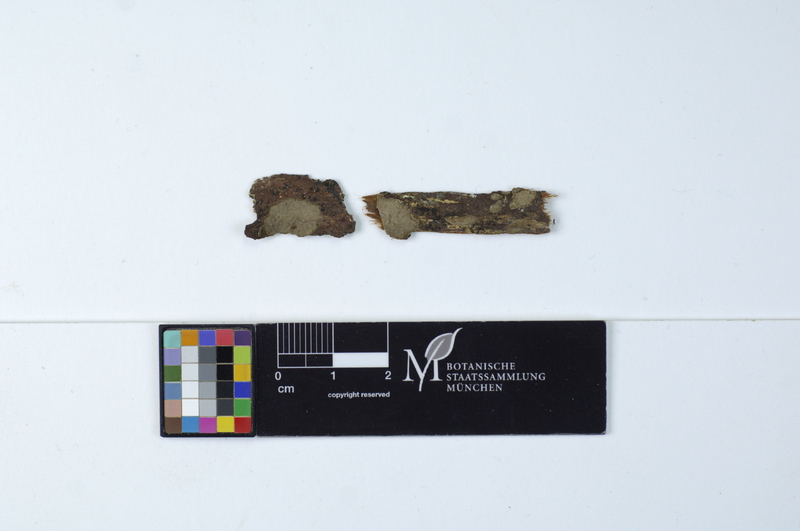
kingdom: Fungi
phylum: Basidiomycota
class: Agaricomycetes
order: Russulales
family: Echinodontiaceae
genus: Amylostereum
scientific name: Amylostereum laevigatum
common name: Yew duster
